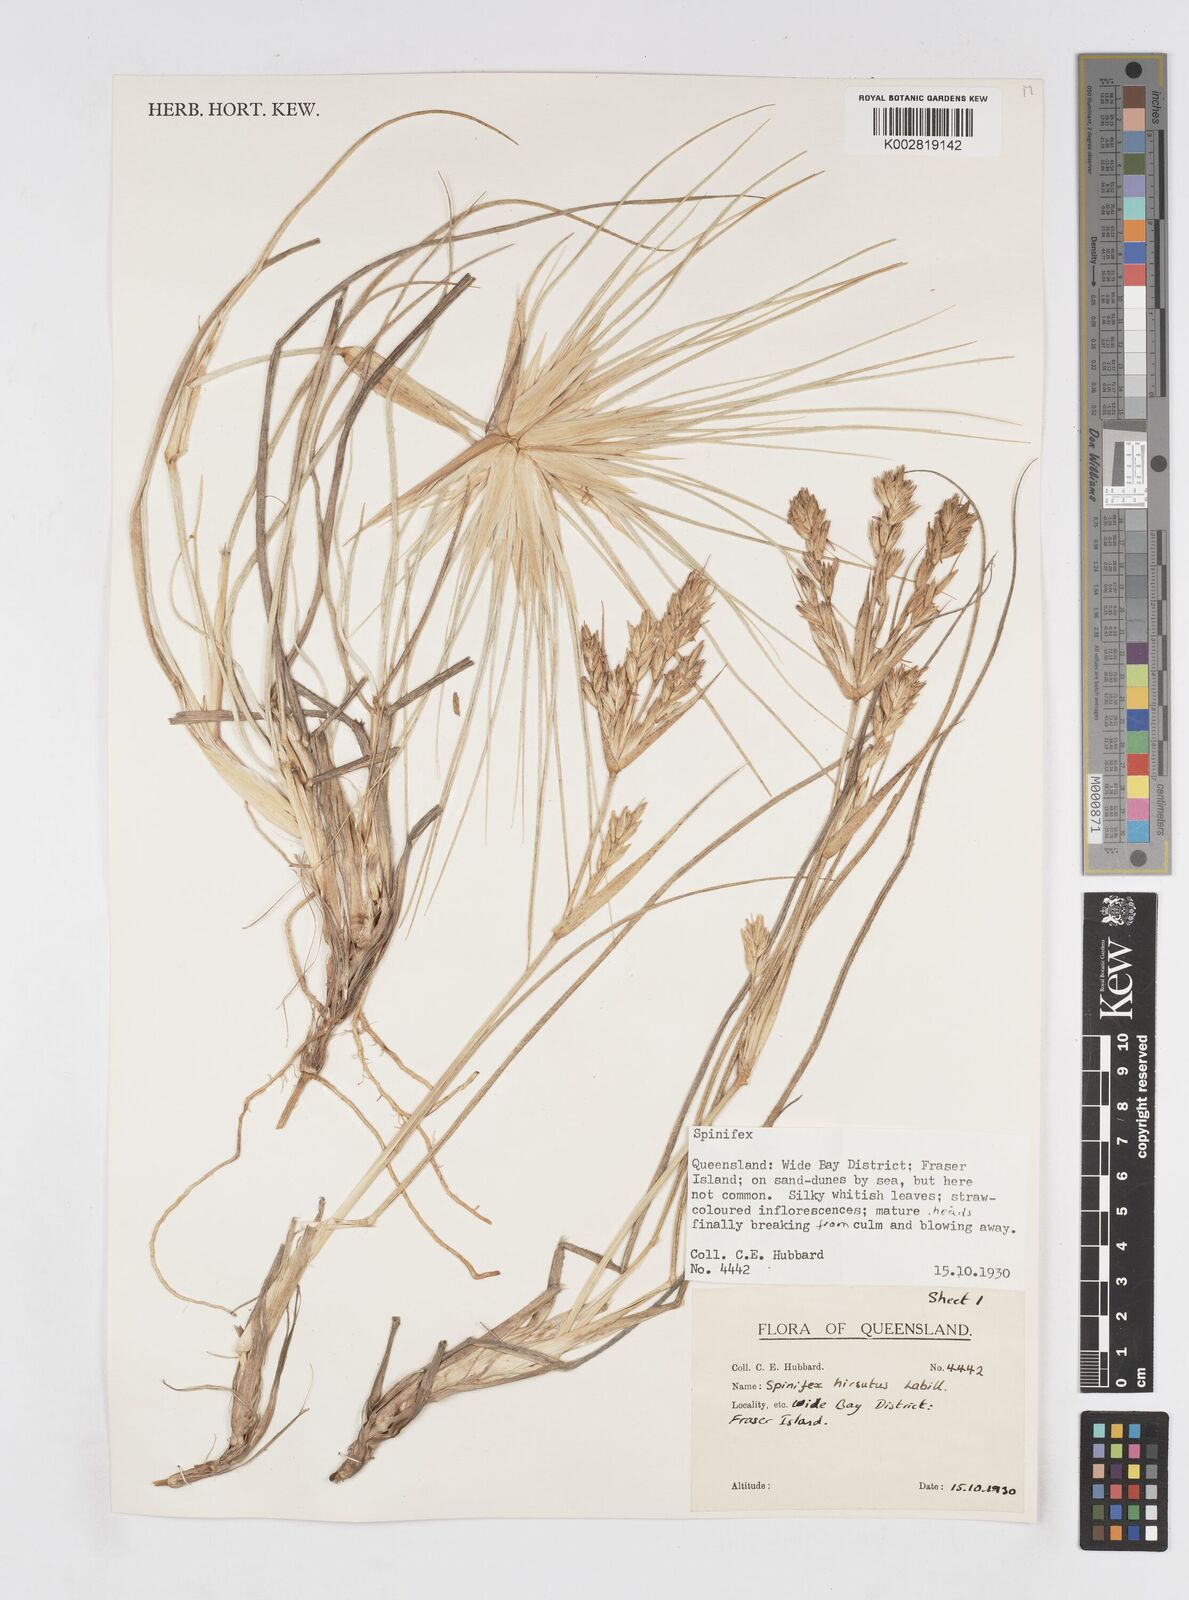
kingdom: Plantae
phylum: Tracheophyta
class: Liliopsida
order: Poales
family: Poaceae
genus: Spinifex
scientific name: Spinifex hirsutus
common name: Hairy spinifex
